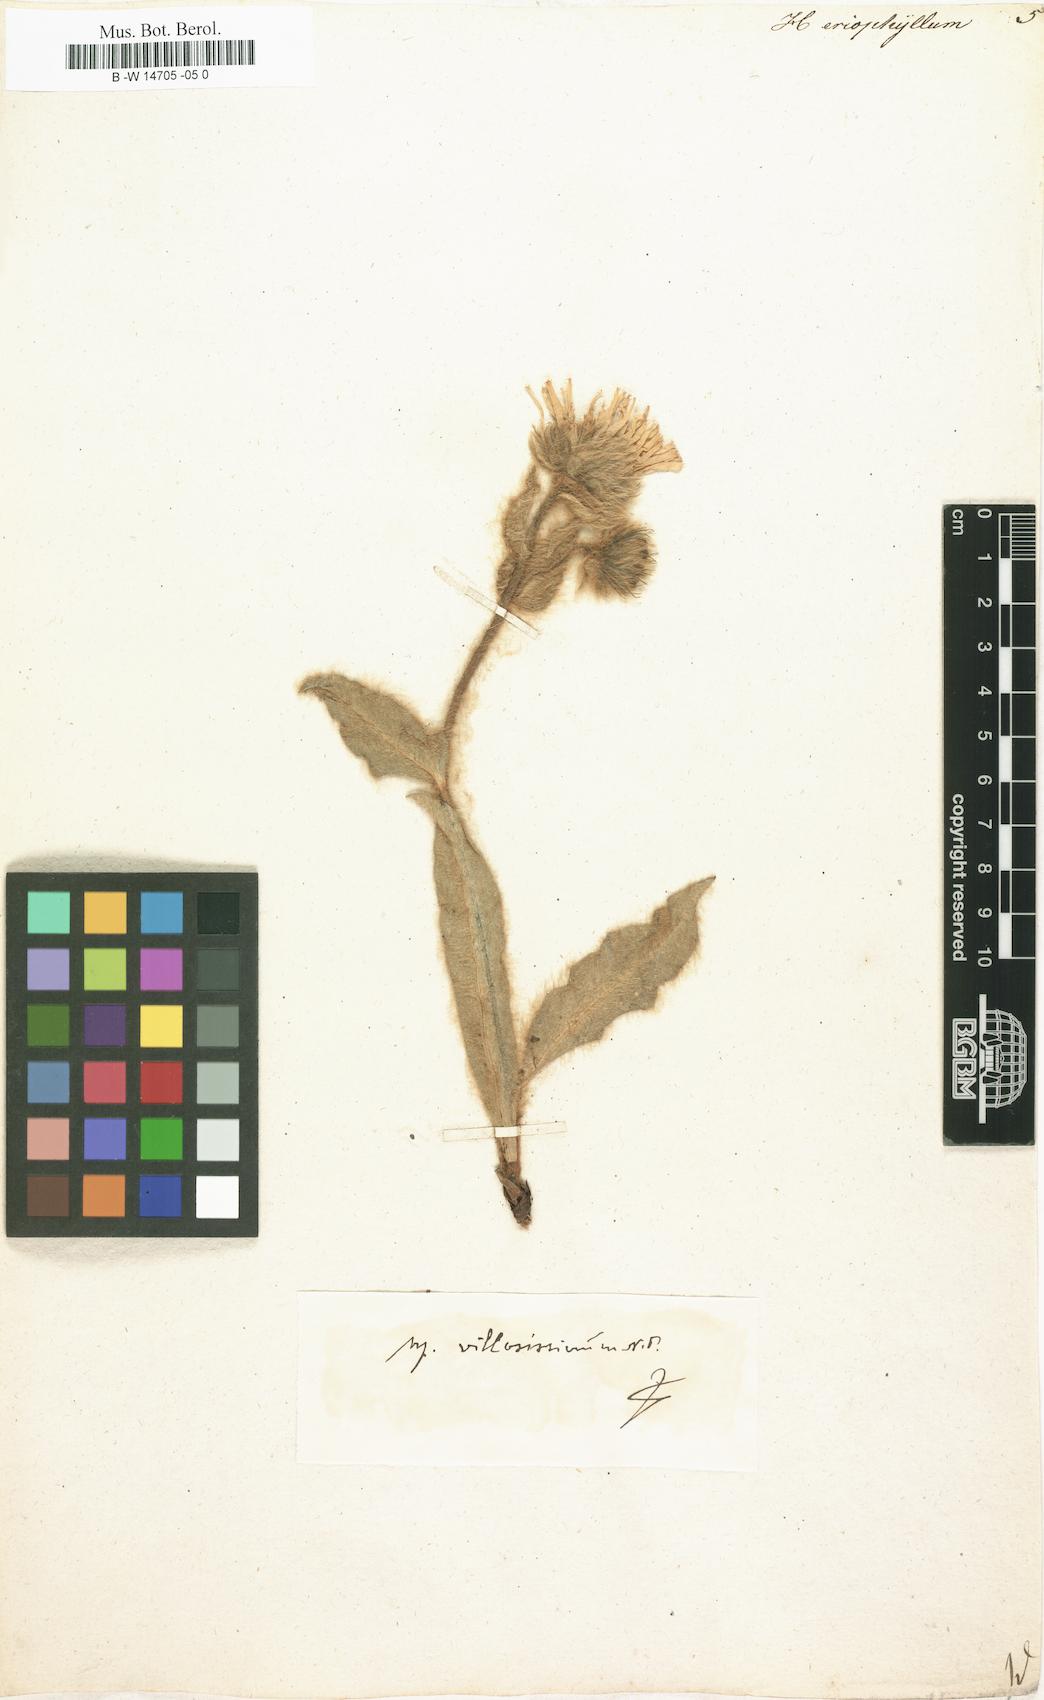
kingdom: Plantae
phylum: Tracheophyta
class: Magnoliopsida
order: Asterales
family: Asteraceae
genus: Hieracium
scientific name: Hieracium villosum
